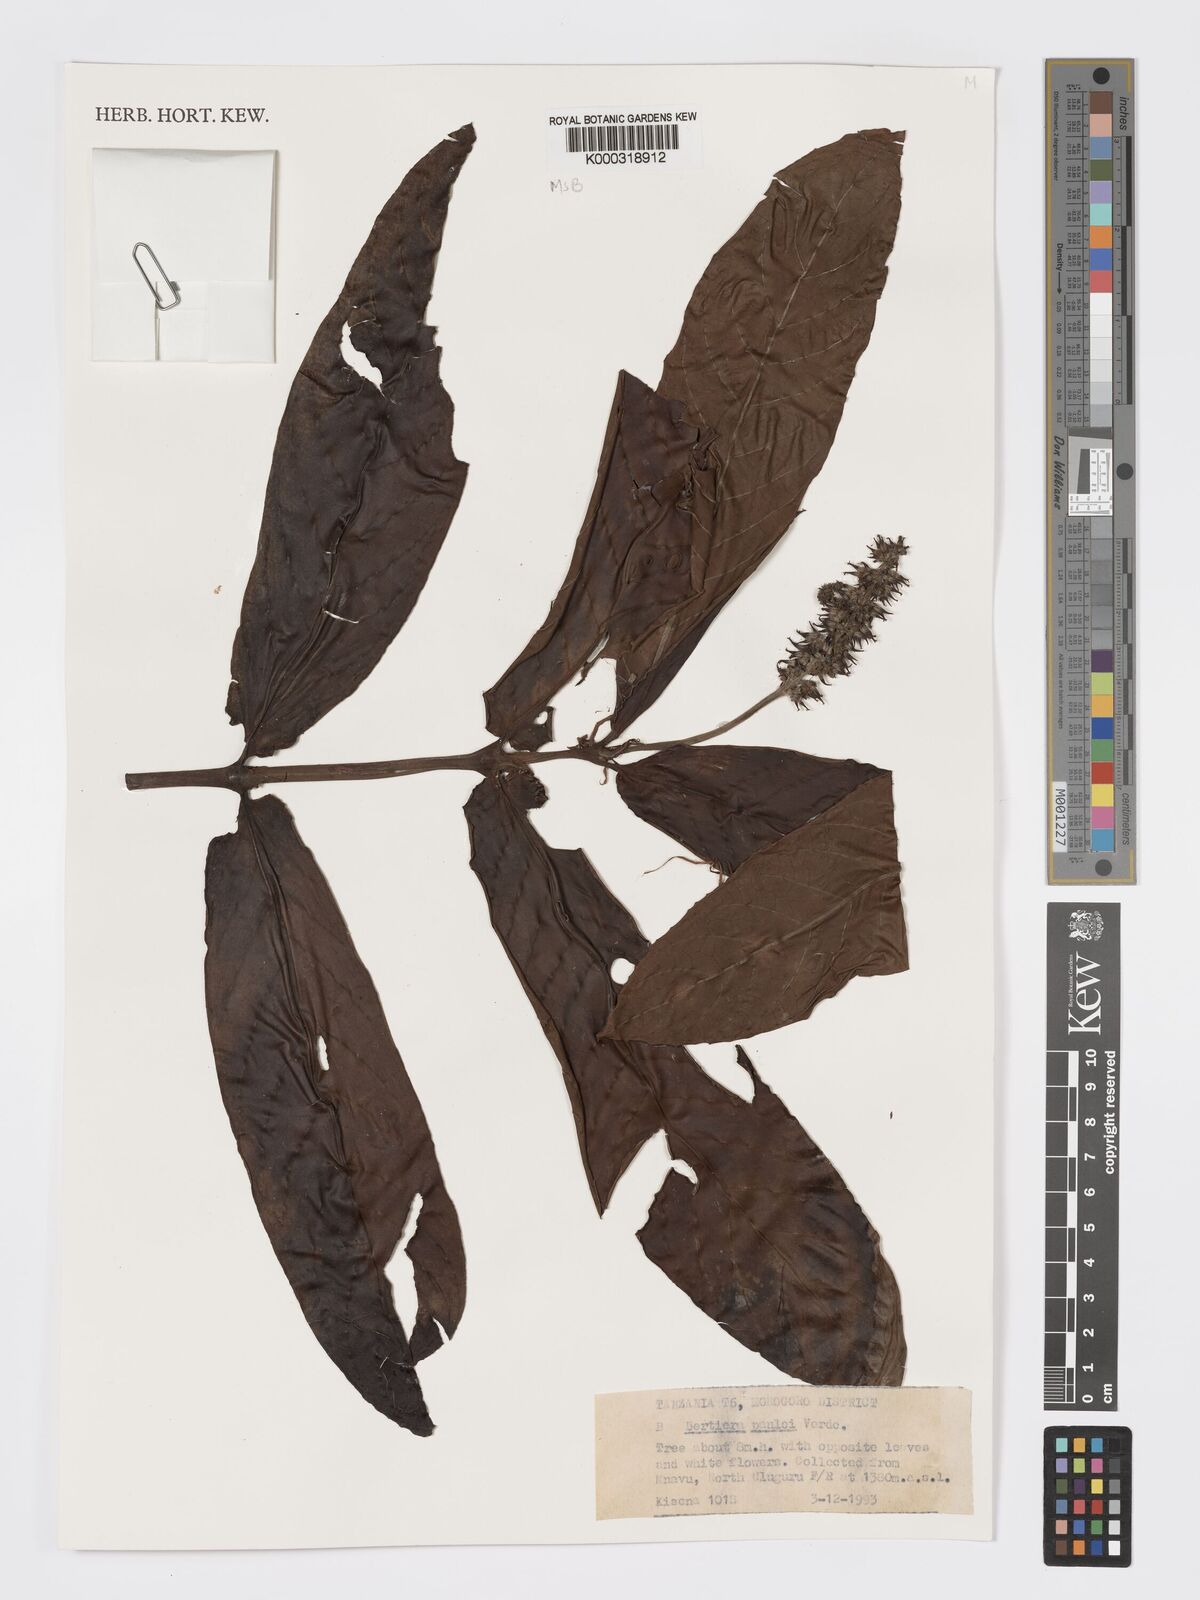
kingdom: Plantae
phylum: Tracheophyta
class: Magnoliopsida
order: Gentianales
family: Rubiaceae
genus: Bertiera
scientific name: Bertiera pauloi
